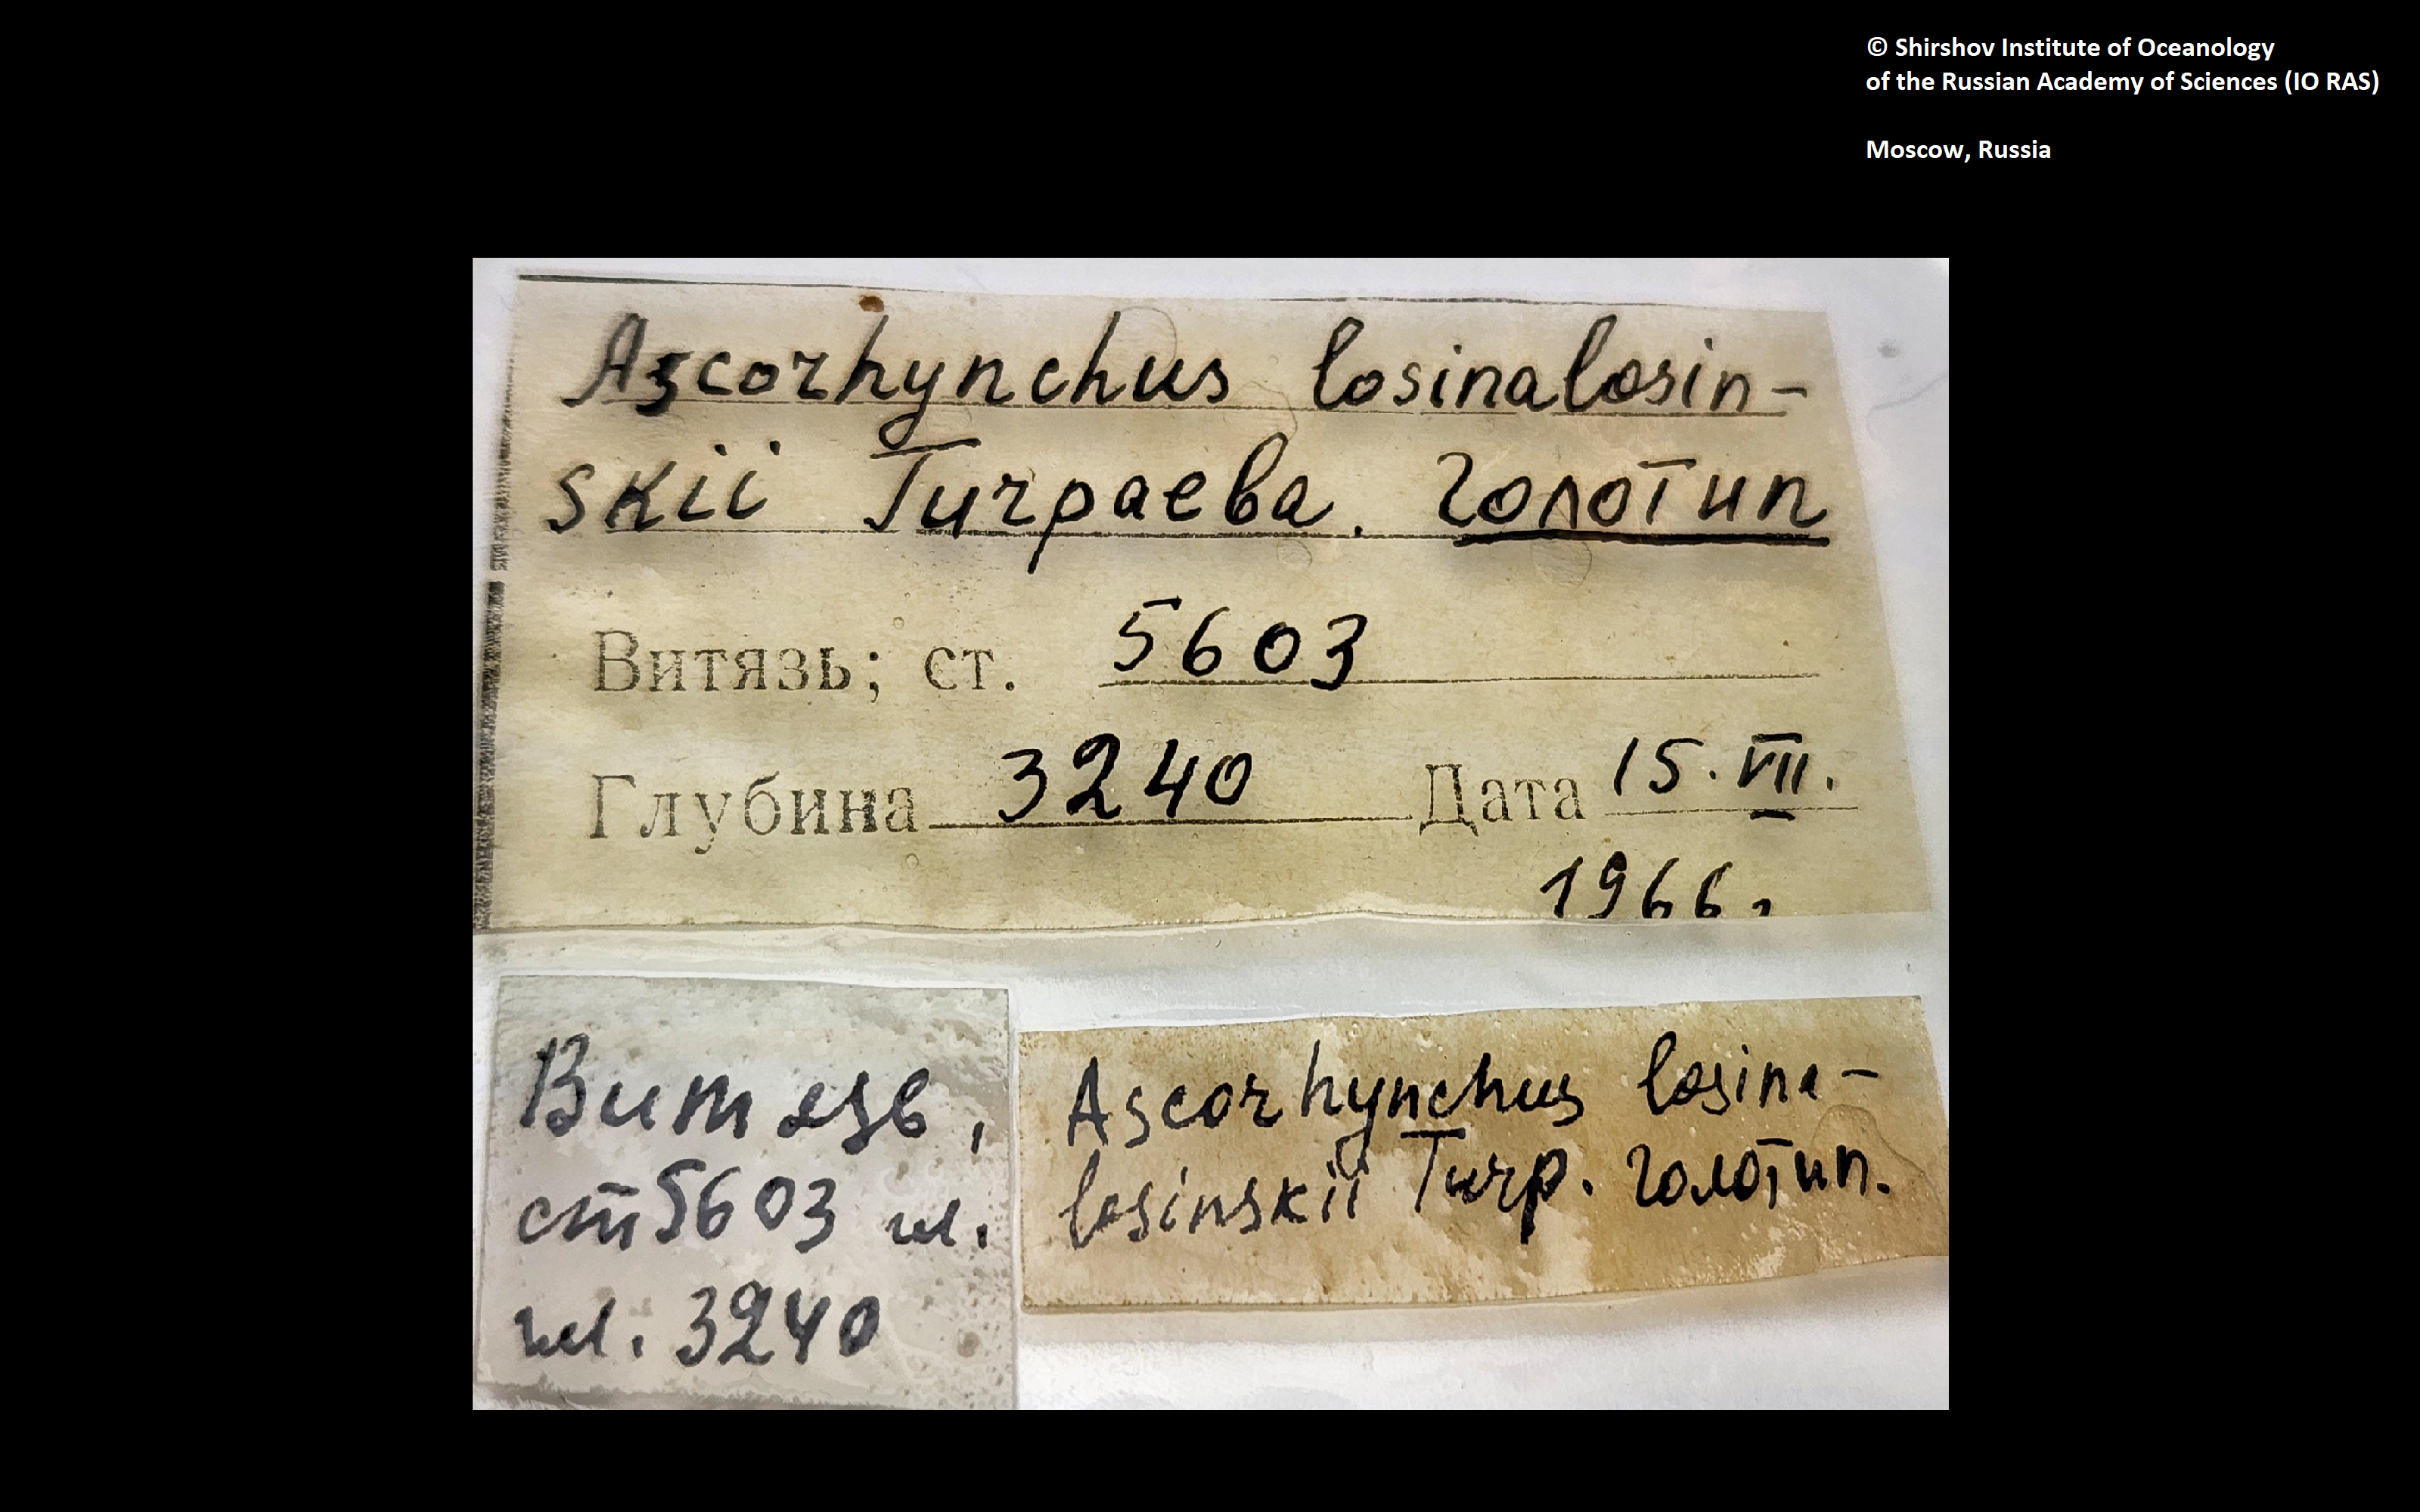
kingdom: Animalia
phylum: Arthropoda
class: Pycnogonida
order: Pantopoda
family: Ascorhynchidae
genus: Ascorhynchus
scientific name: Ascorhynchus losinalosinskii
